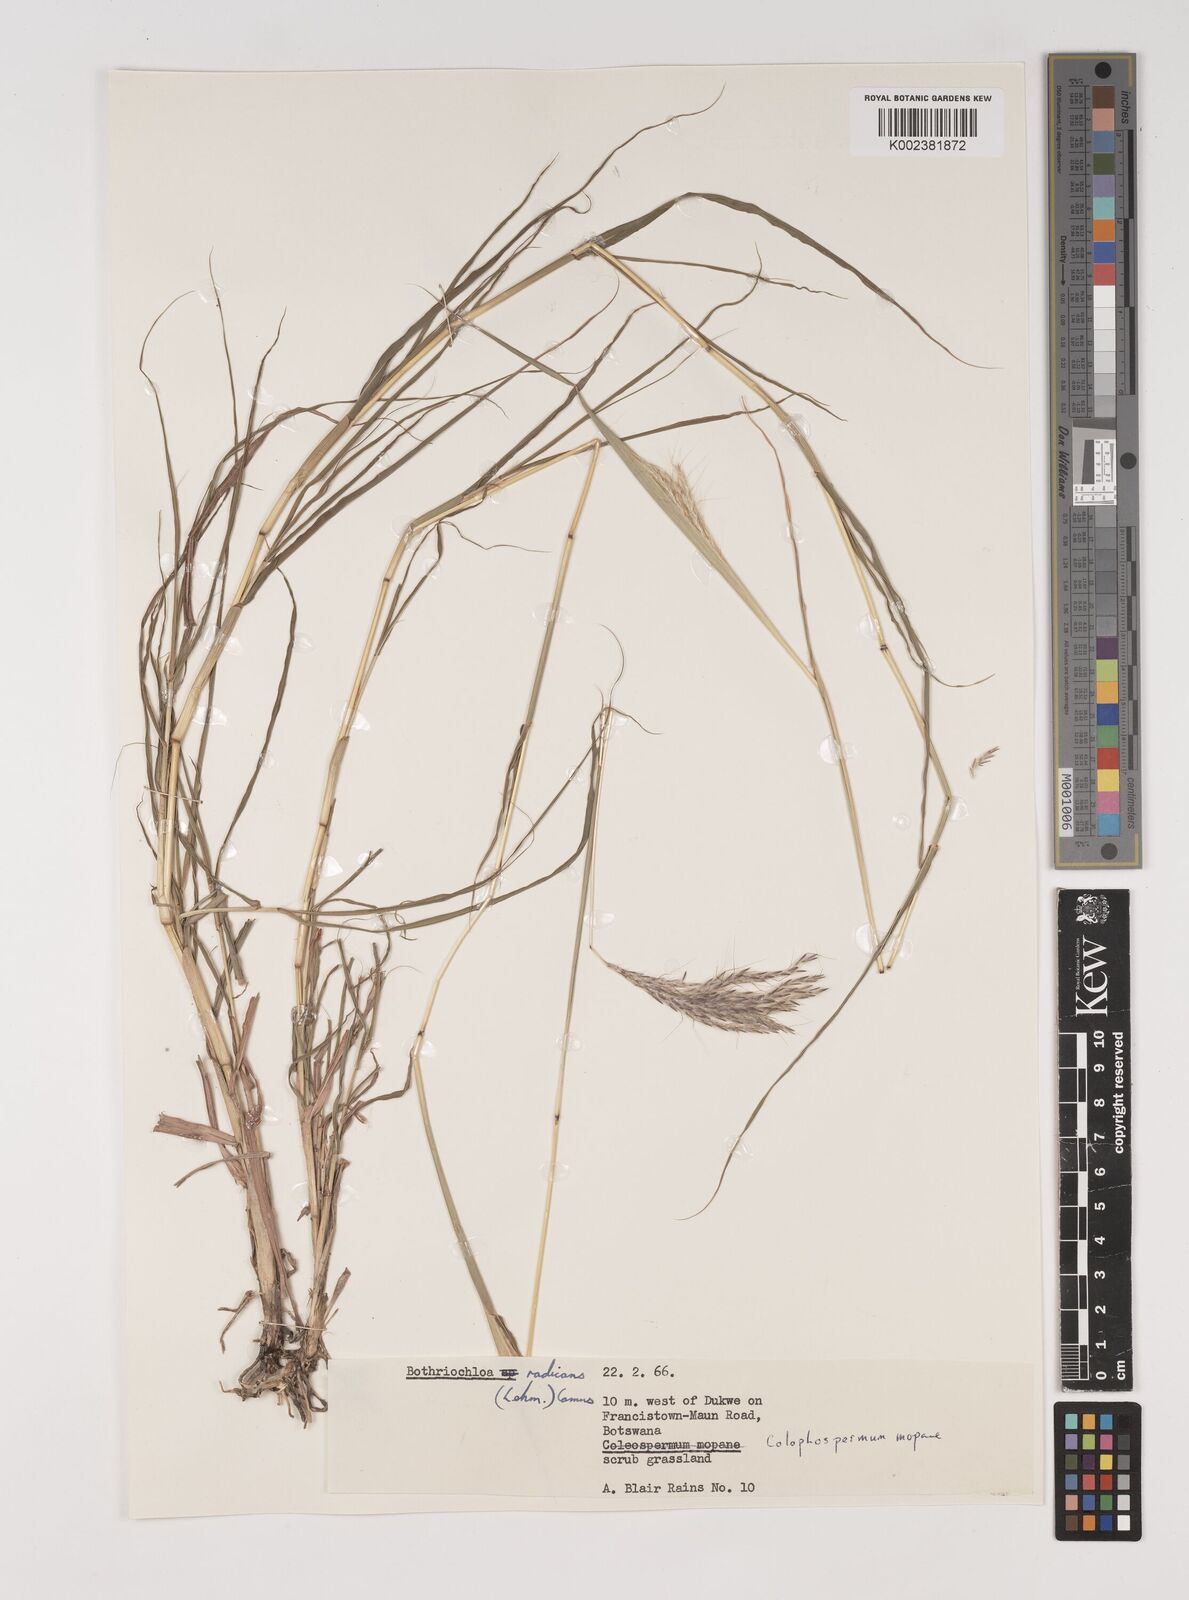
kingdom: Plantae
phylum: Tracheophyta
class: Liliopsida
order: Poales
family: Poaceae
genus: Bothriochloa
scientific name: Bothriochloa radicans
